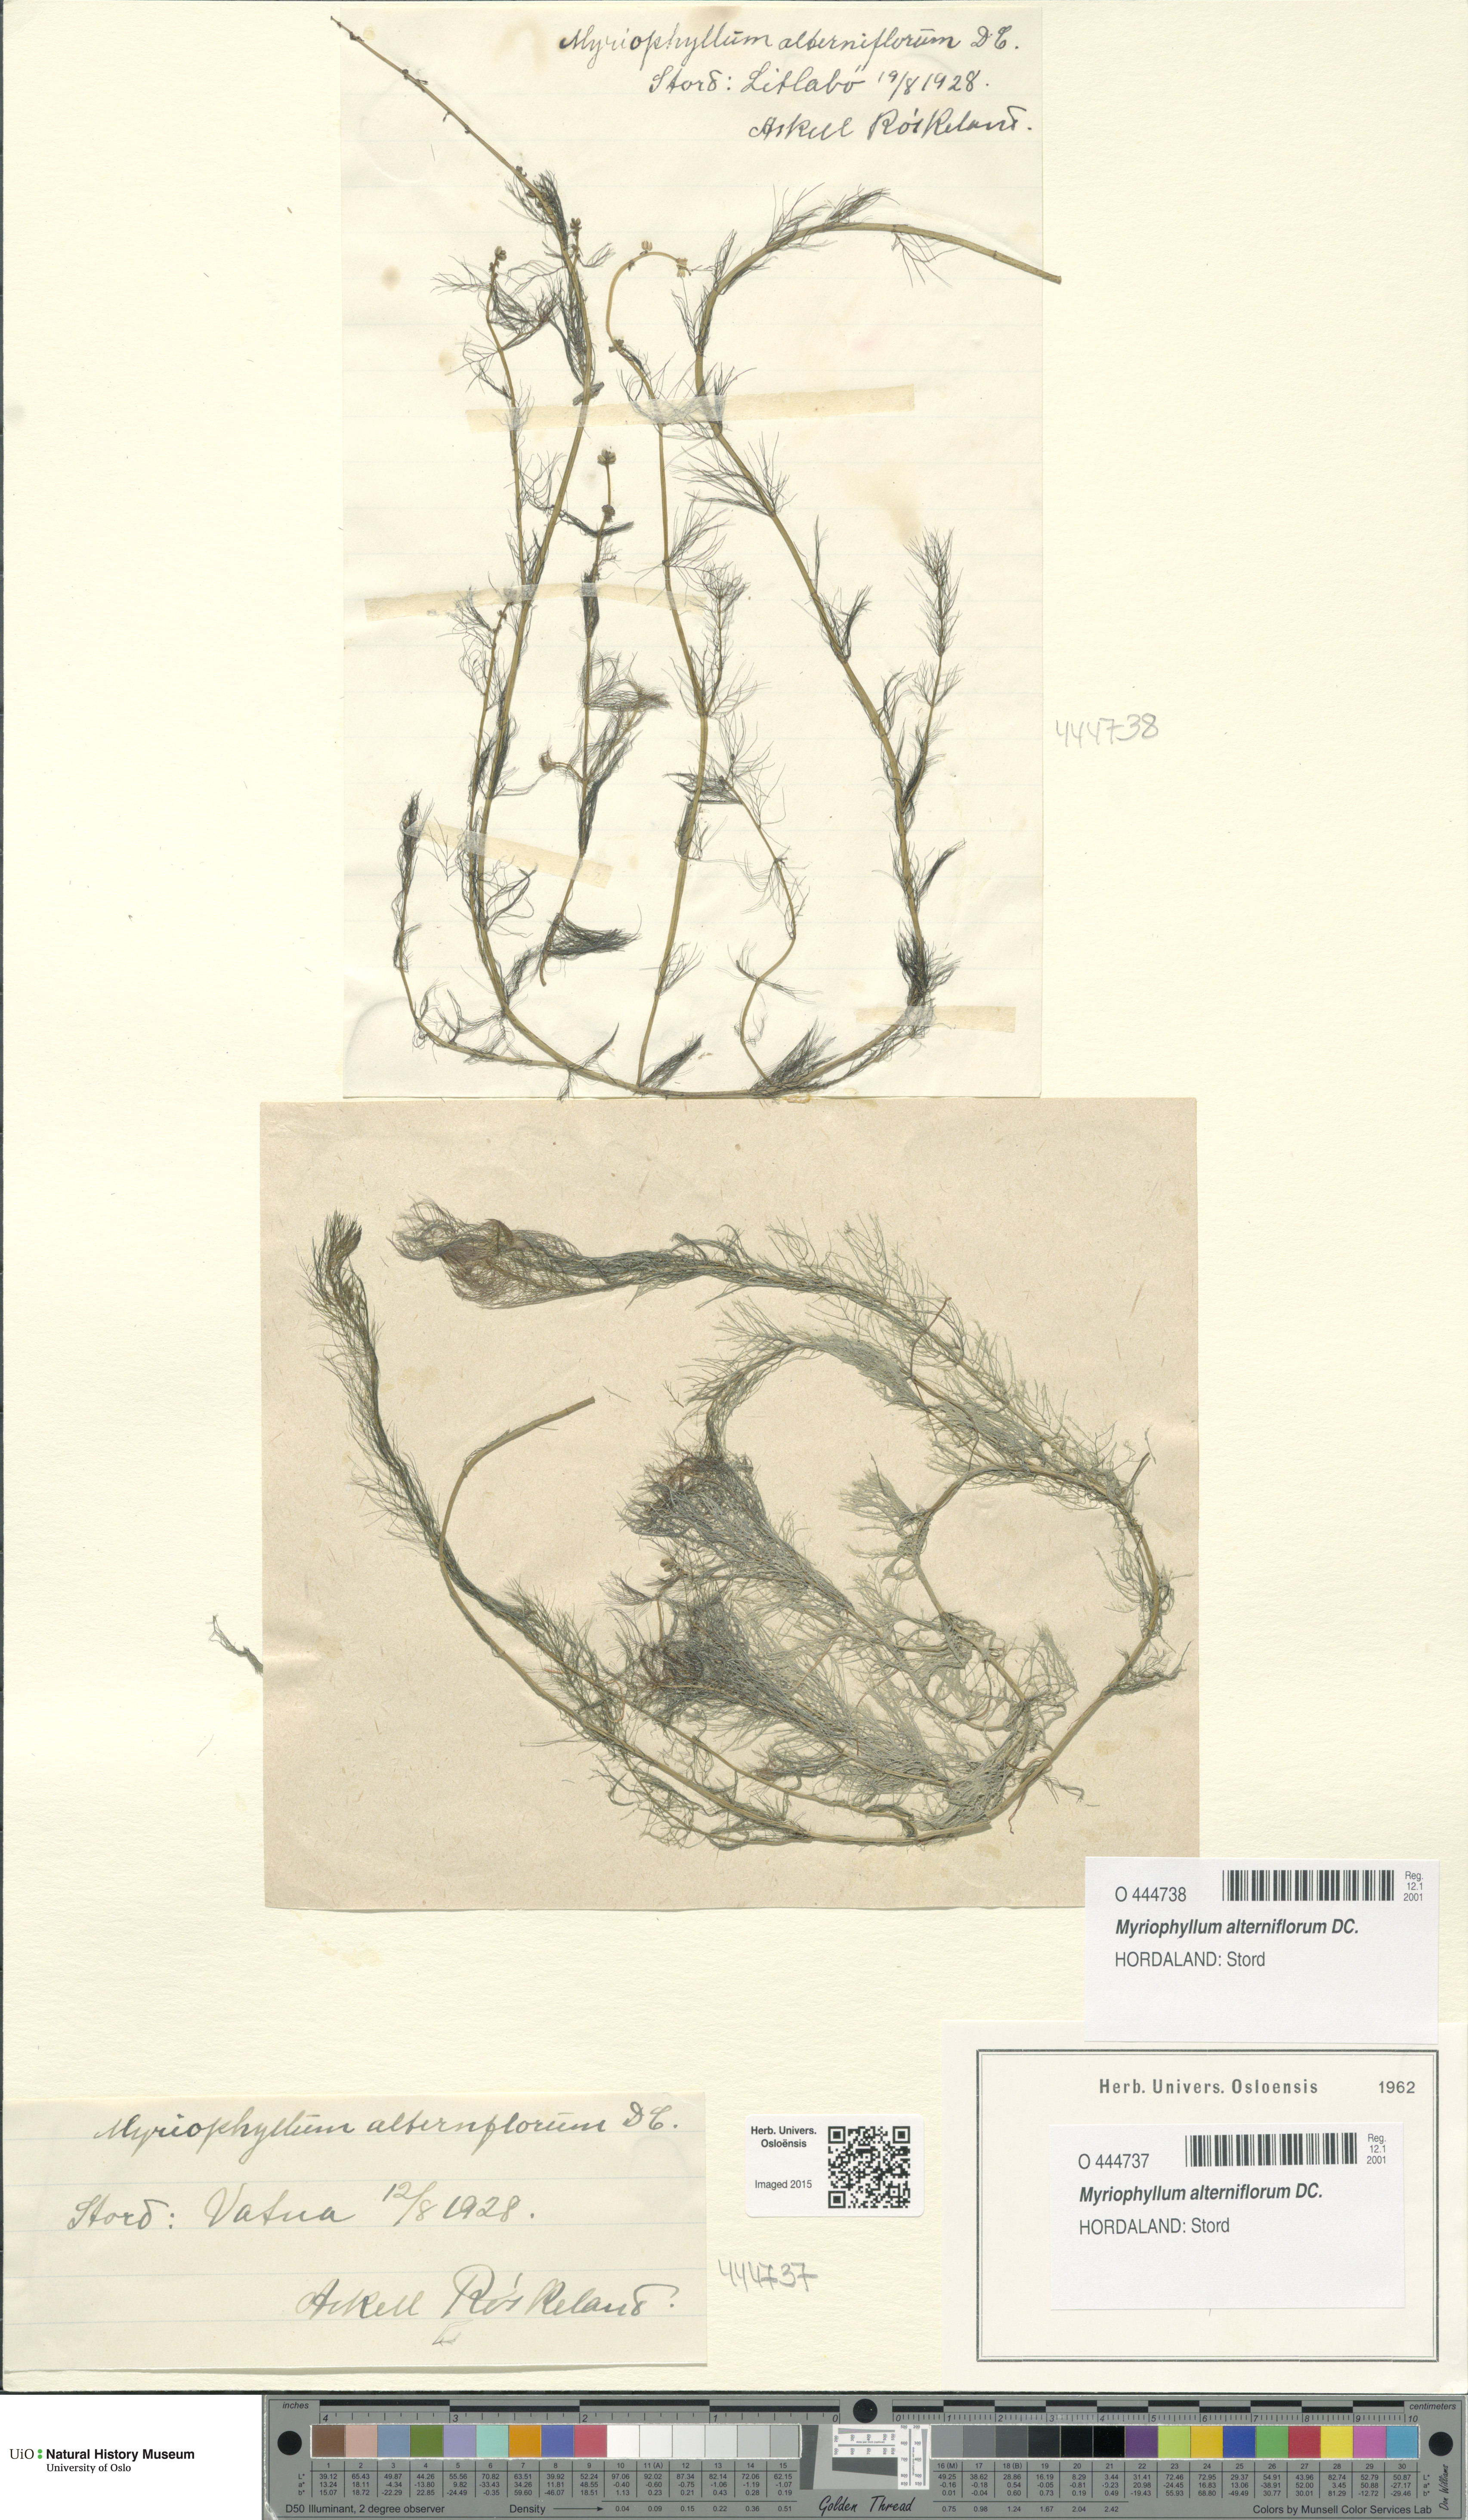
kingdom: Plantae
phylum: Tracheophyta
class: Magnoliopsida
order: Saxifragales
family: Haloragaceae
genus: Myriophyllum
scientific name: Myriophyllum alterniflorum
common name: Alternate water-milfoil
